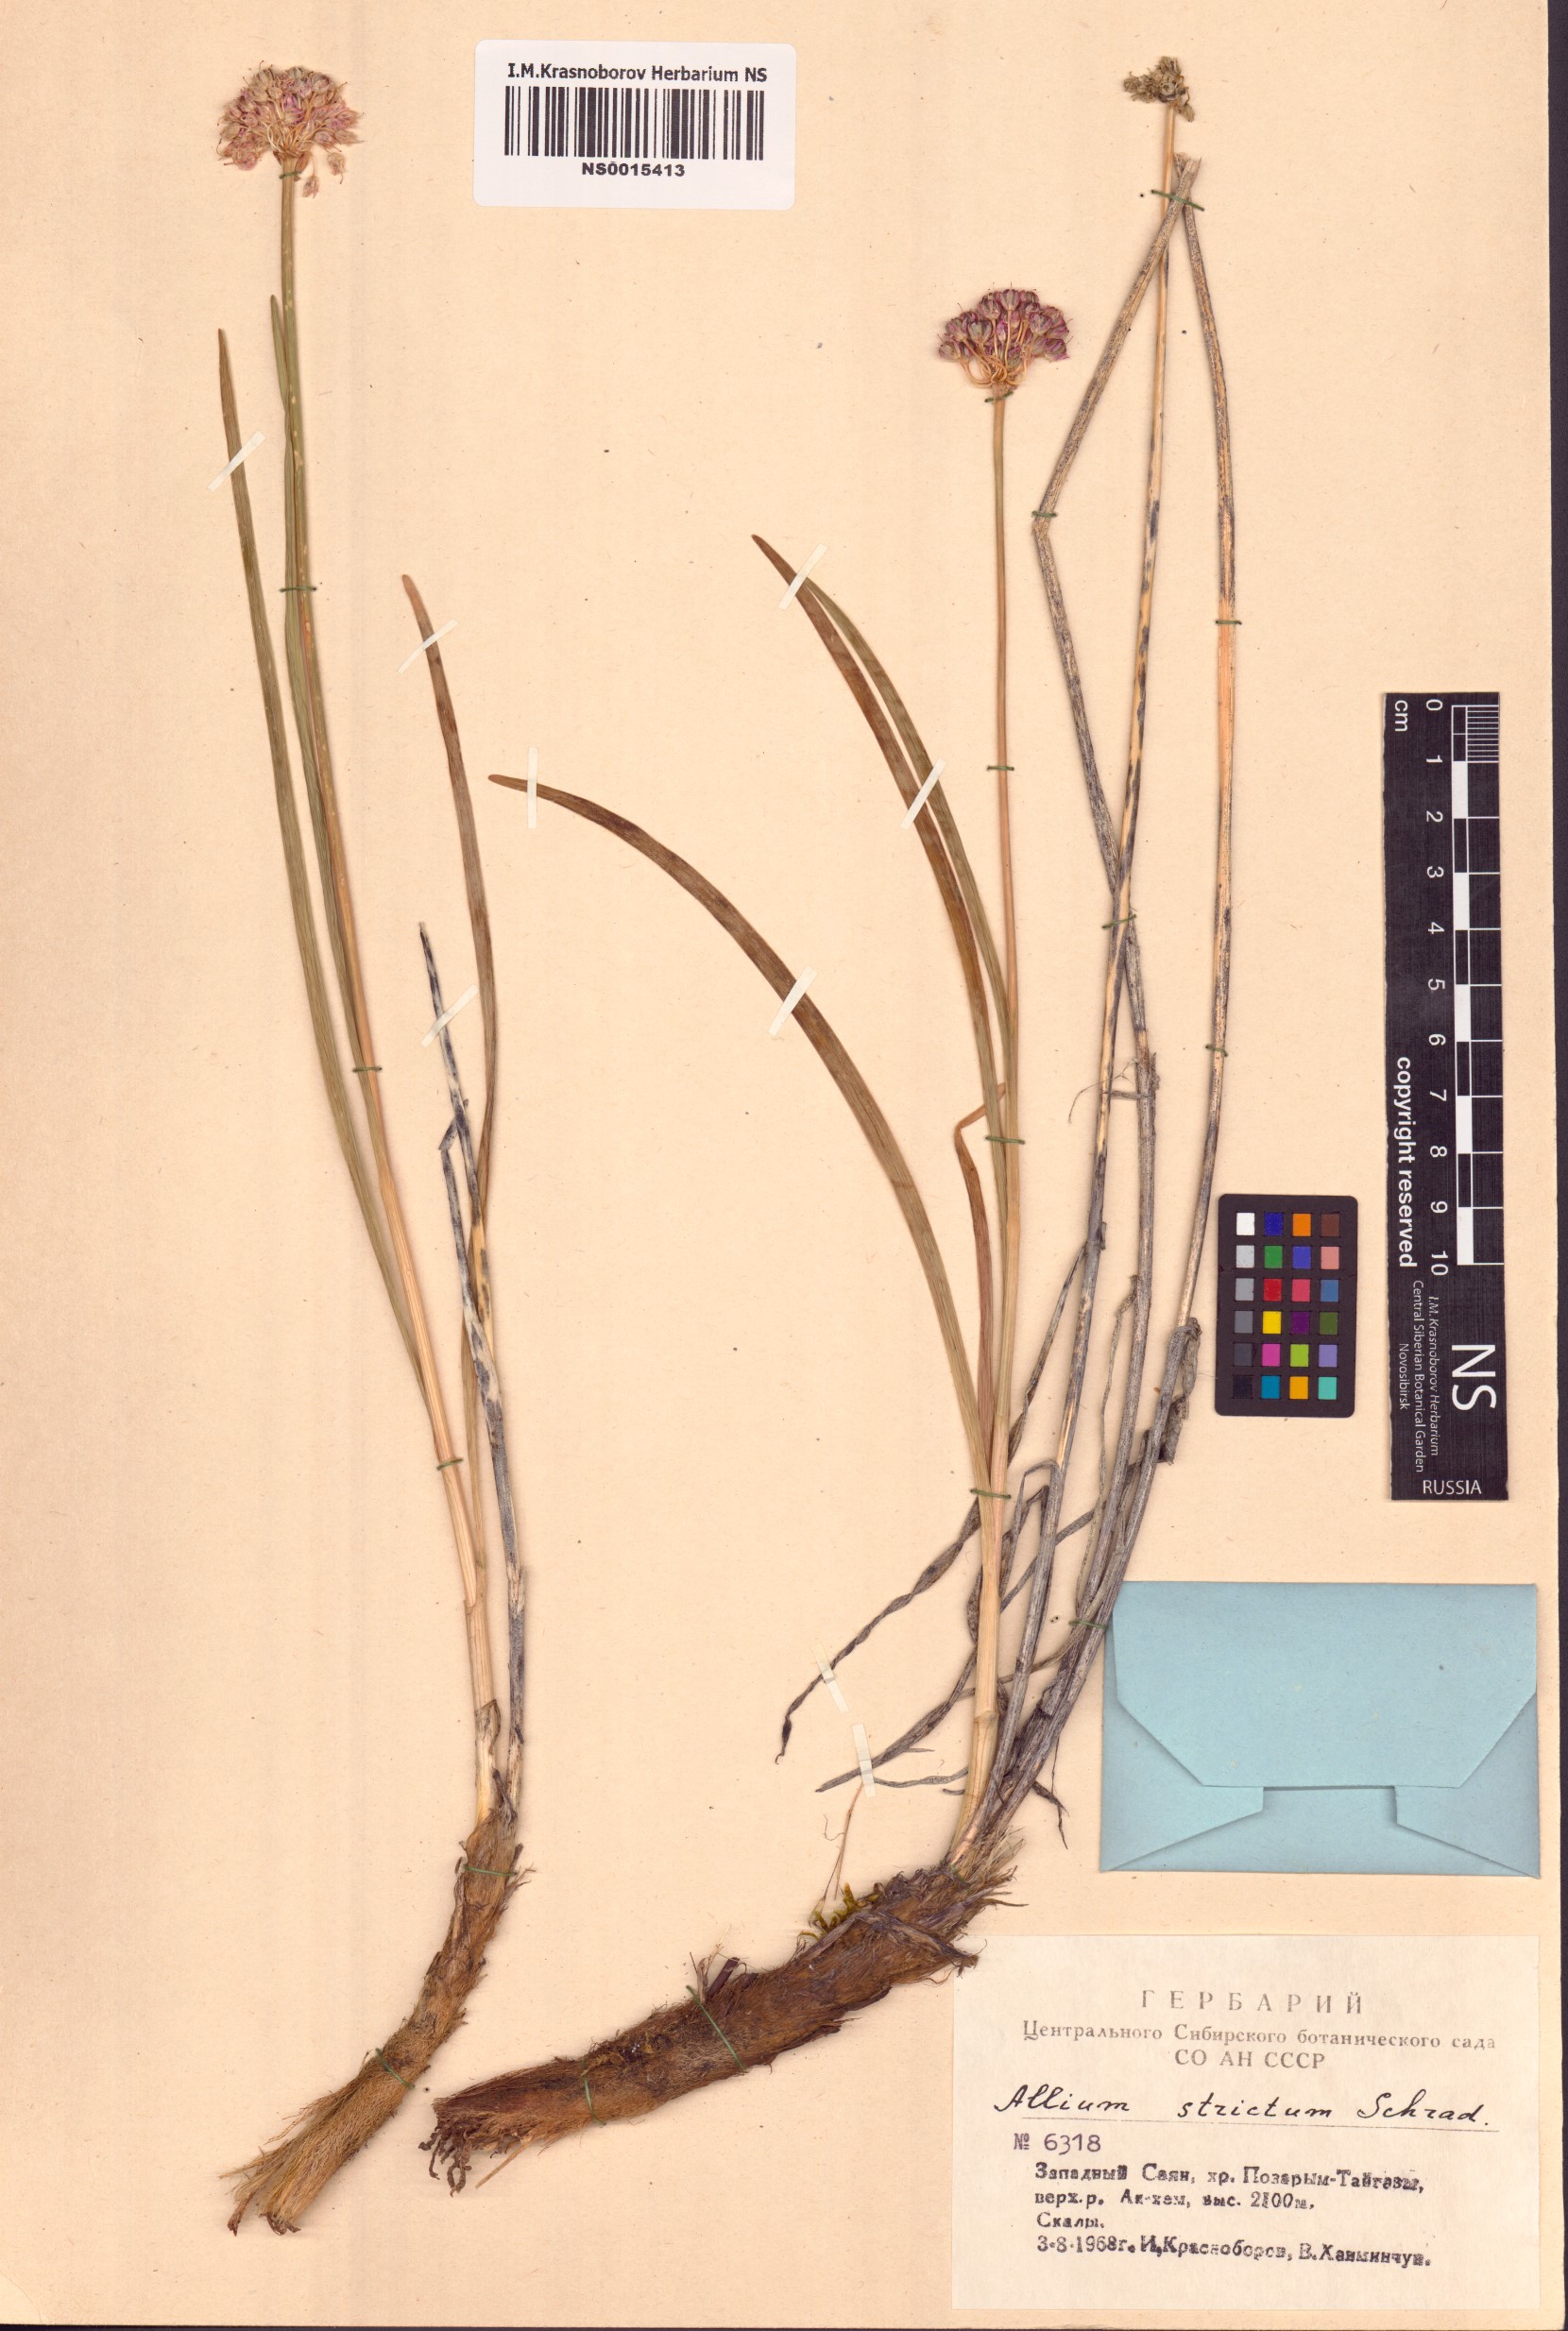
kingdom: Plantae
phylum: Tracheophyta
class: Liliopsida
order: Asparagales
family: Amaryllidaceae
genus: Allium
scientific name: Allium strictum
